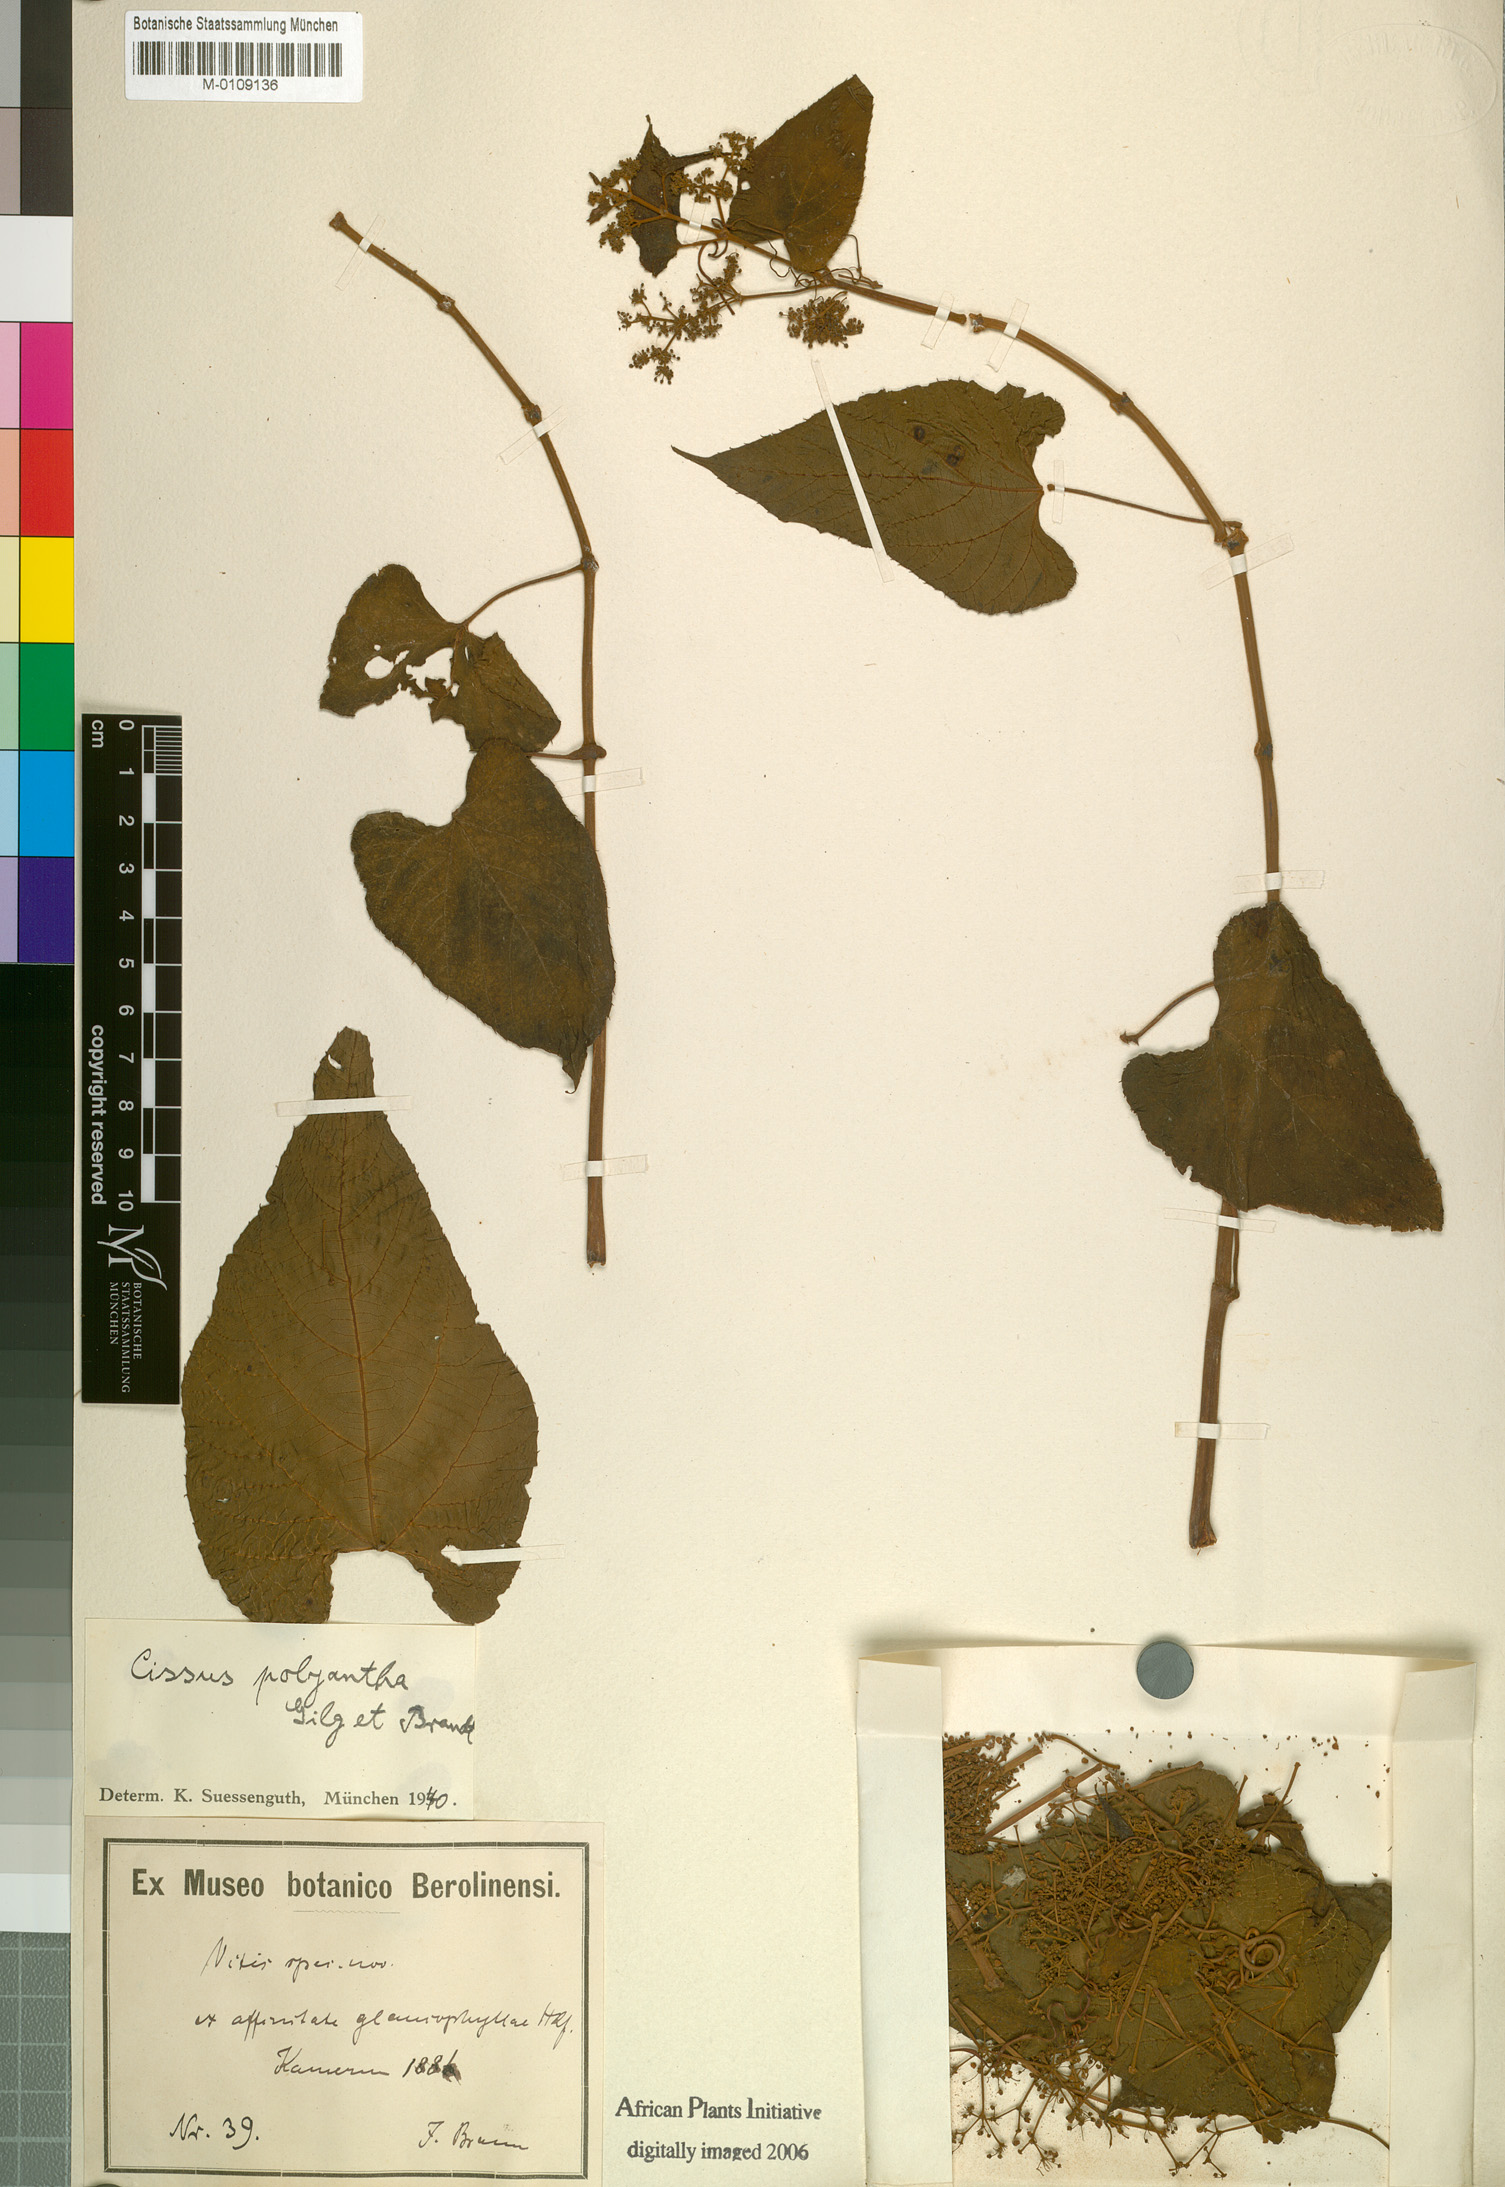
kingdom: Plantae
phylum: Tracheophyta
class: Magnoliopsida
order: Vitales
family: Vitaceae
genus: Cissus
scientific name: Cissus polyantha
